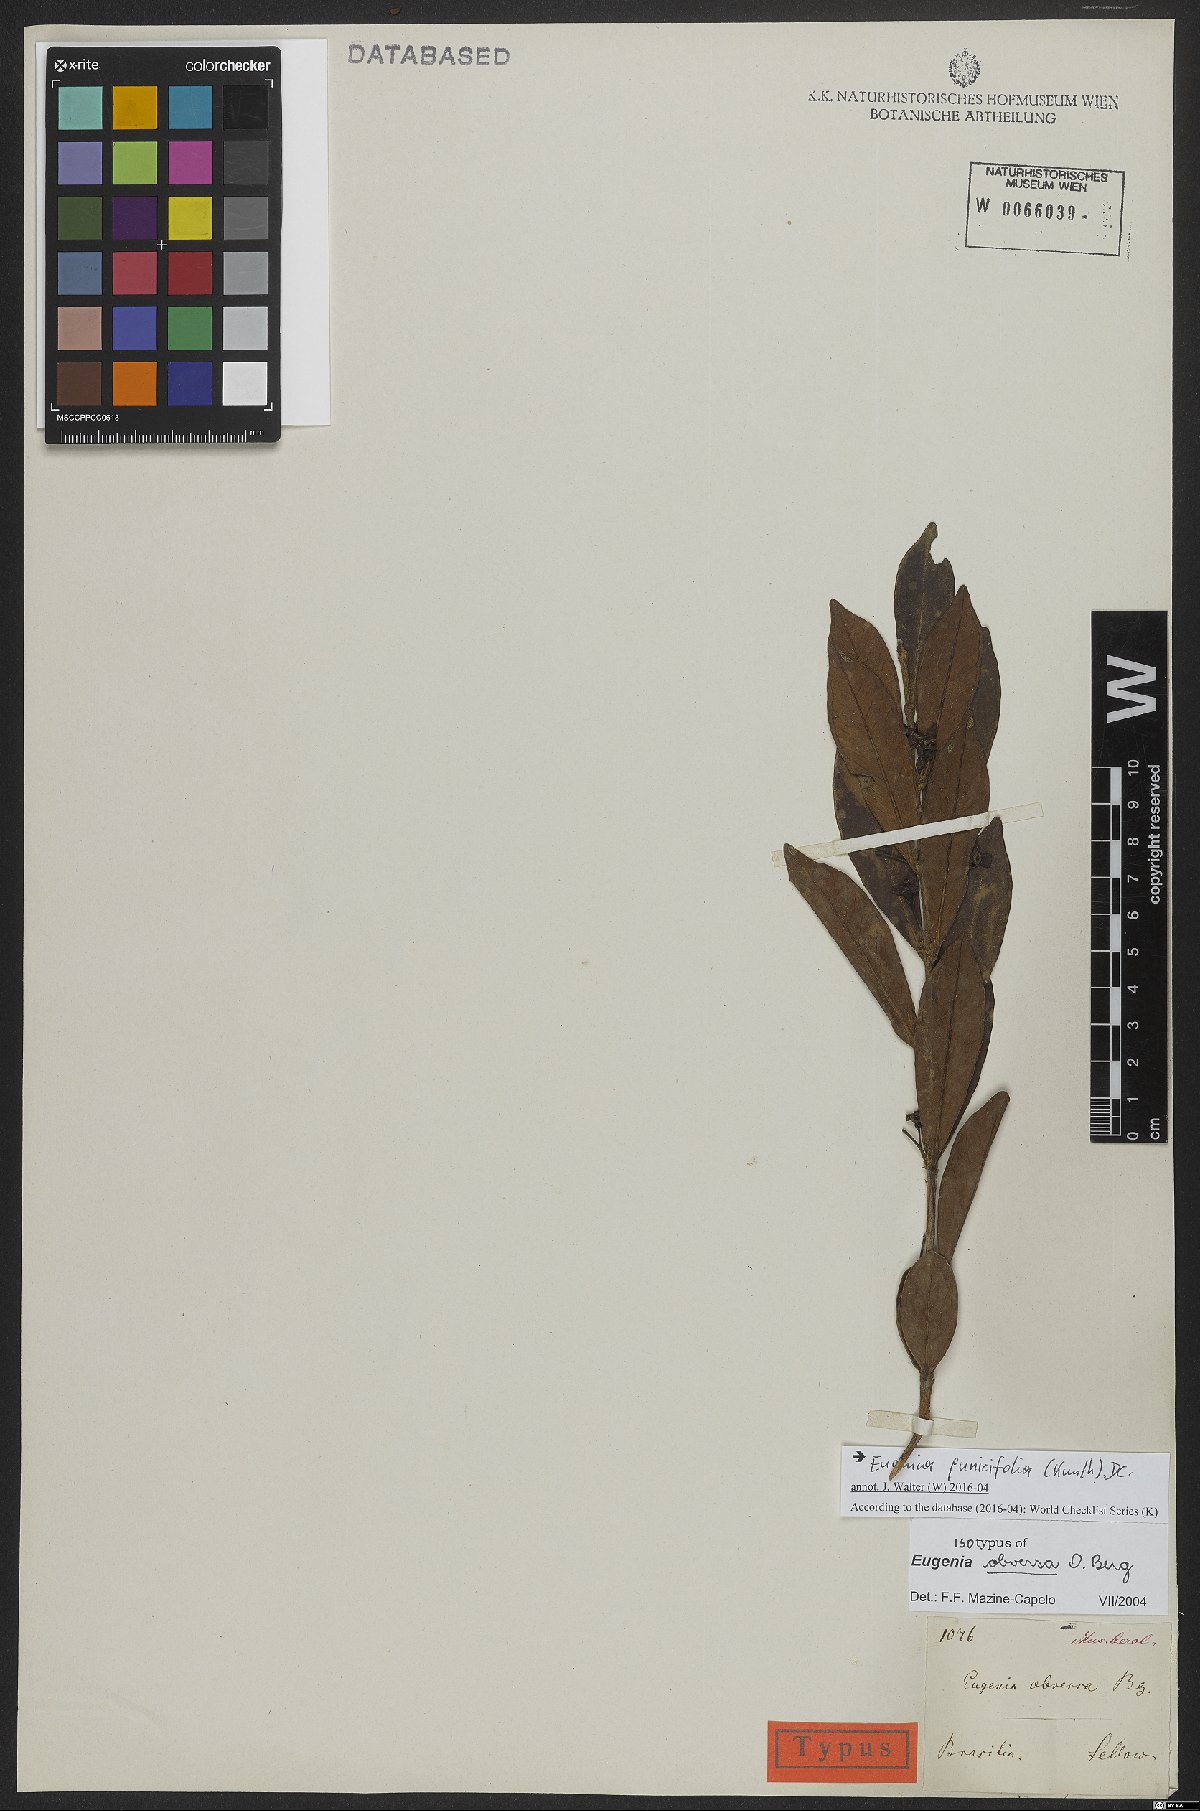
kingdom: Plantae
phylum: Tracheophyta
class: Magnoliopsida
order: Myrtales
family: Myrtaceae
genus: Eugenia
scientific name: Eugenia punicifolia
